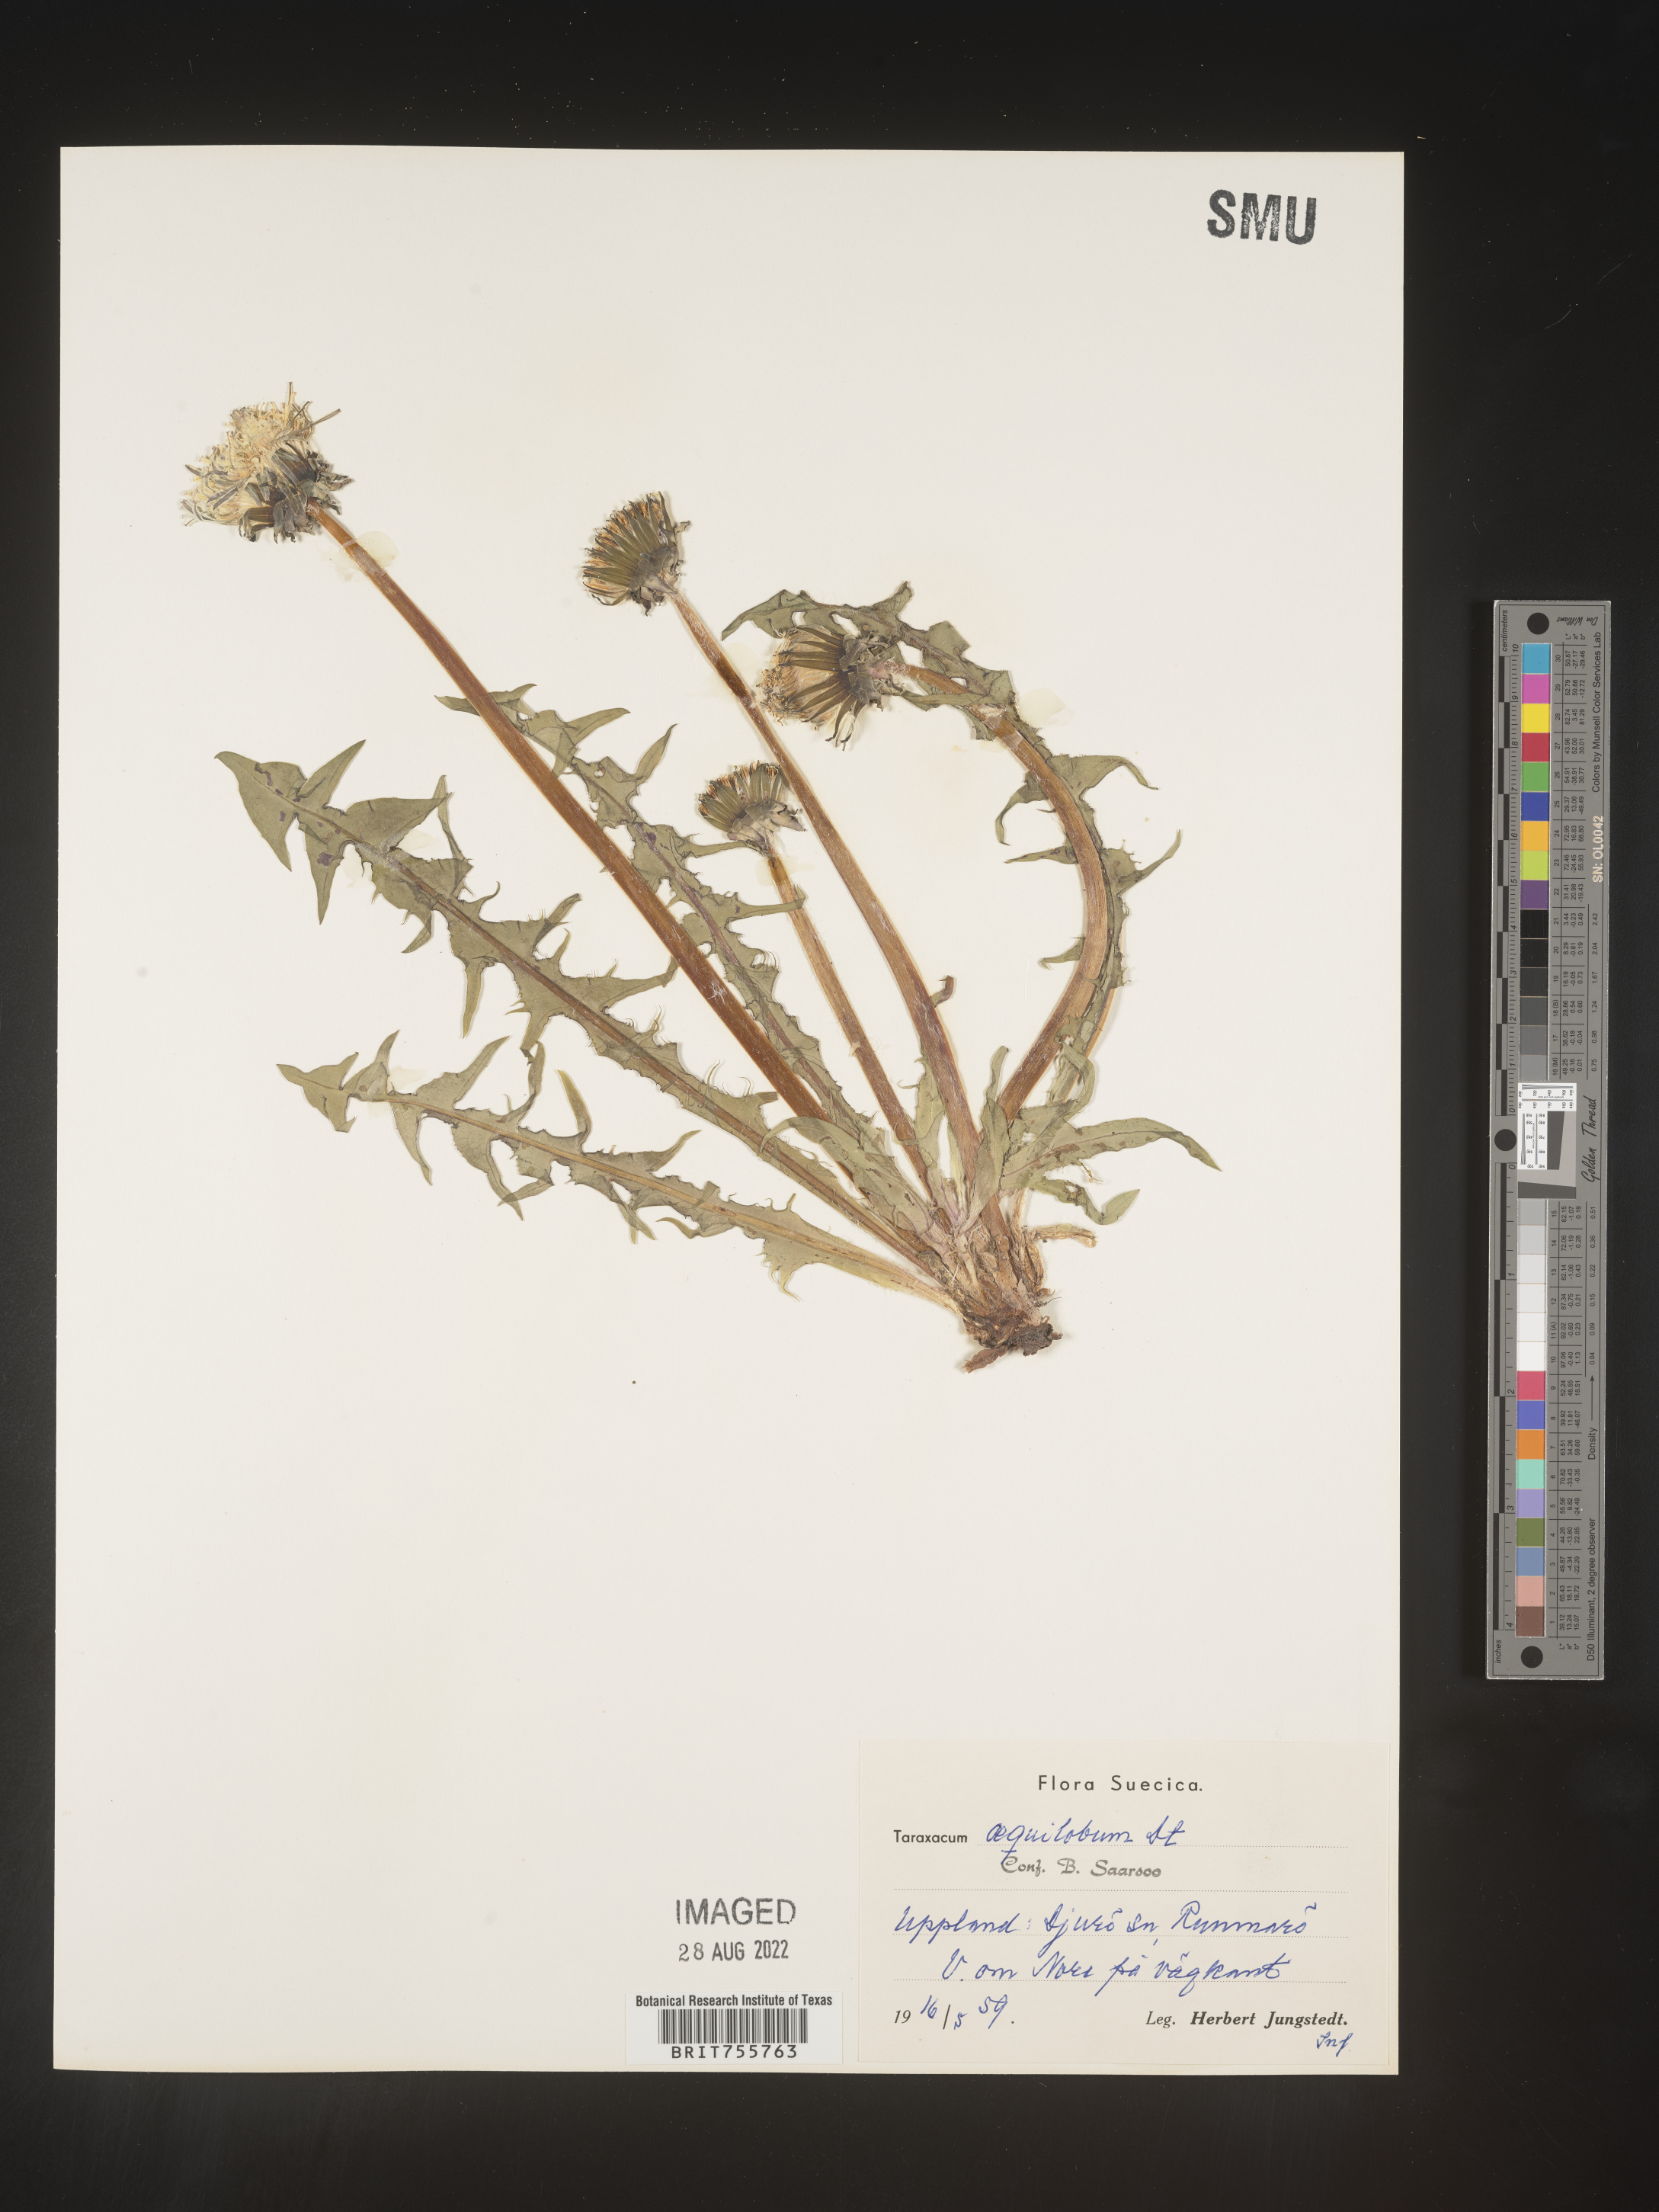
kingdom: Plantae
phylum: Tracheophyta
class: Magnoliopsida
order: Asterales
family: Asteraceae
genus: Taraxacum
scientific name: Taraxacum
